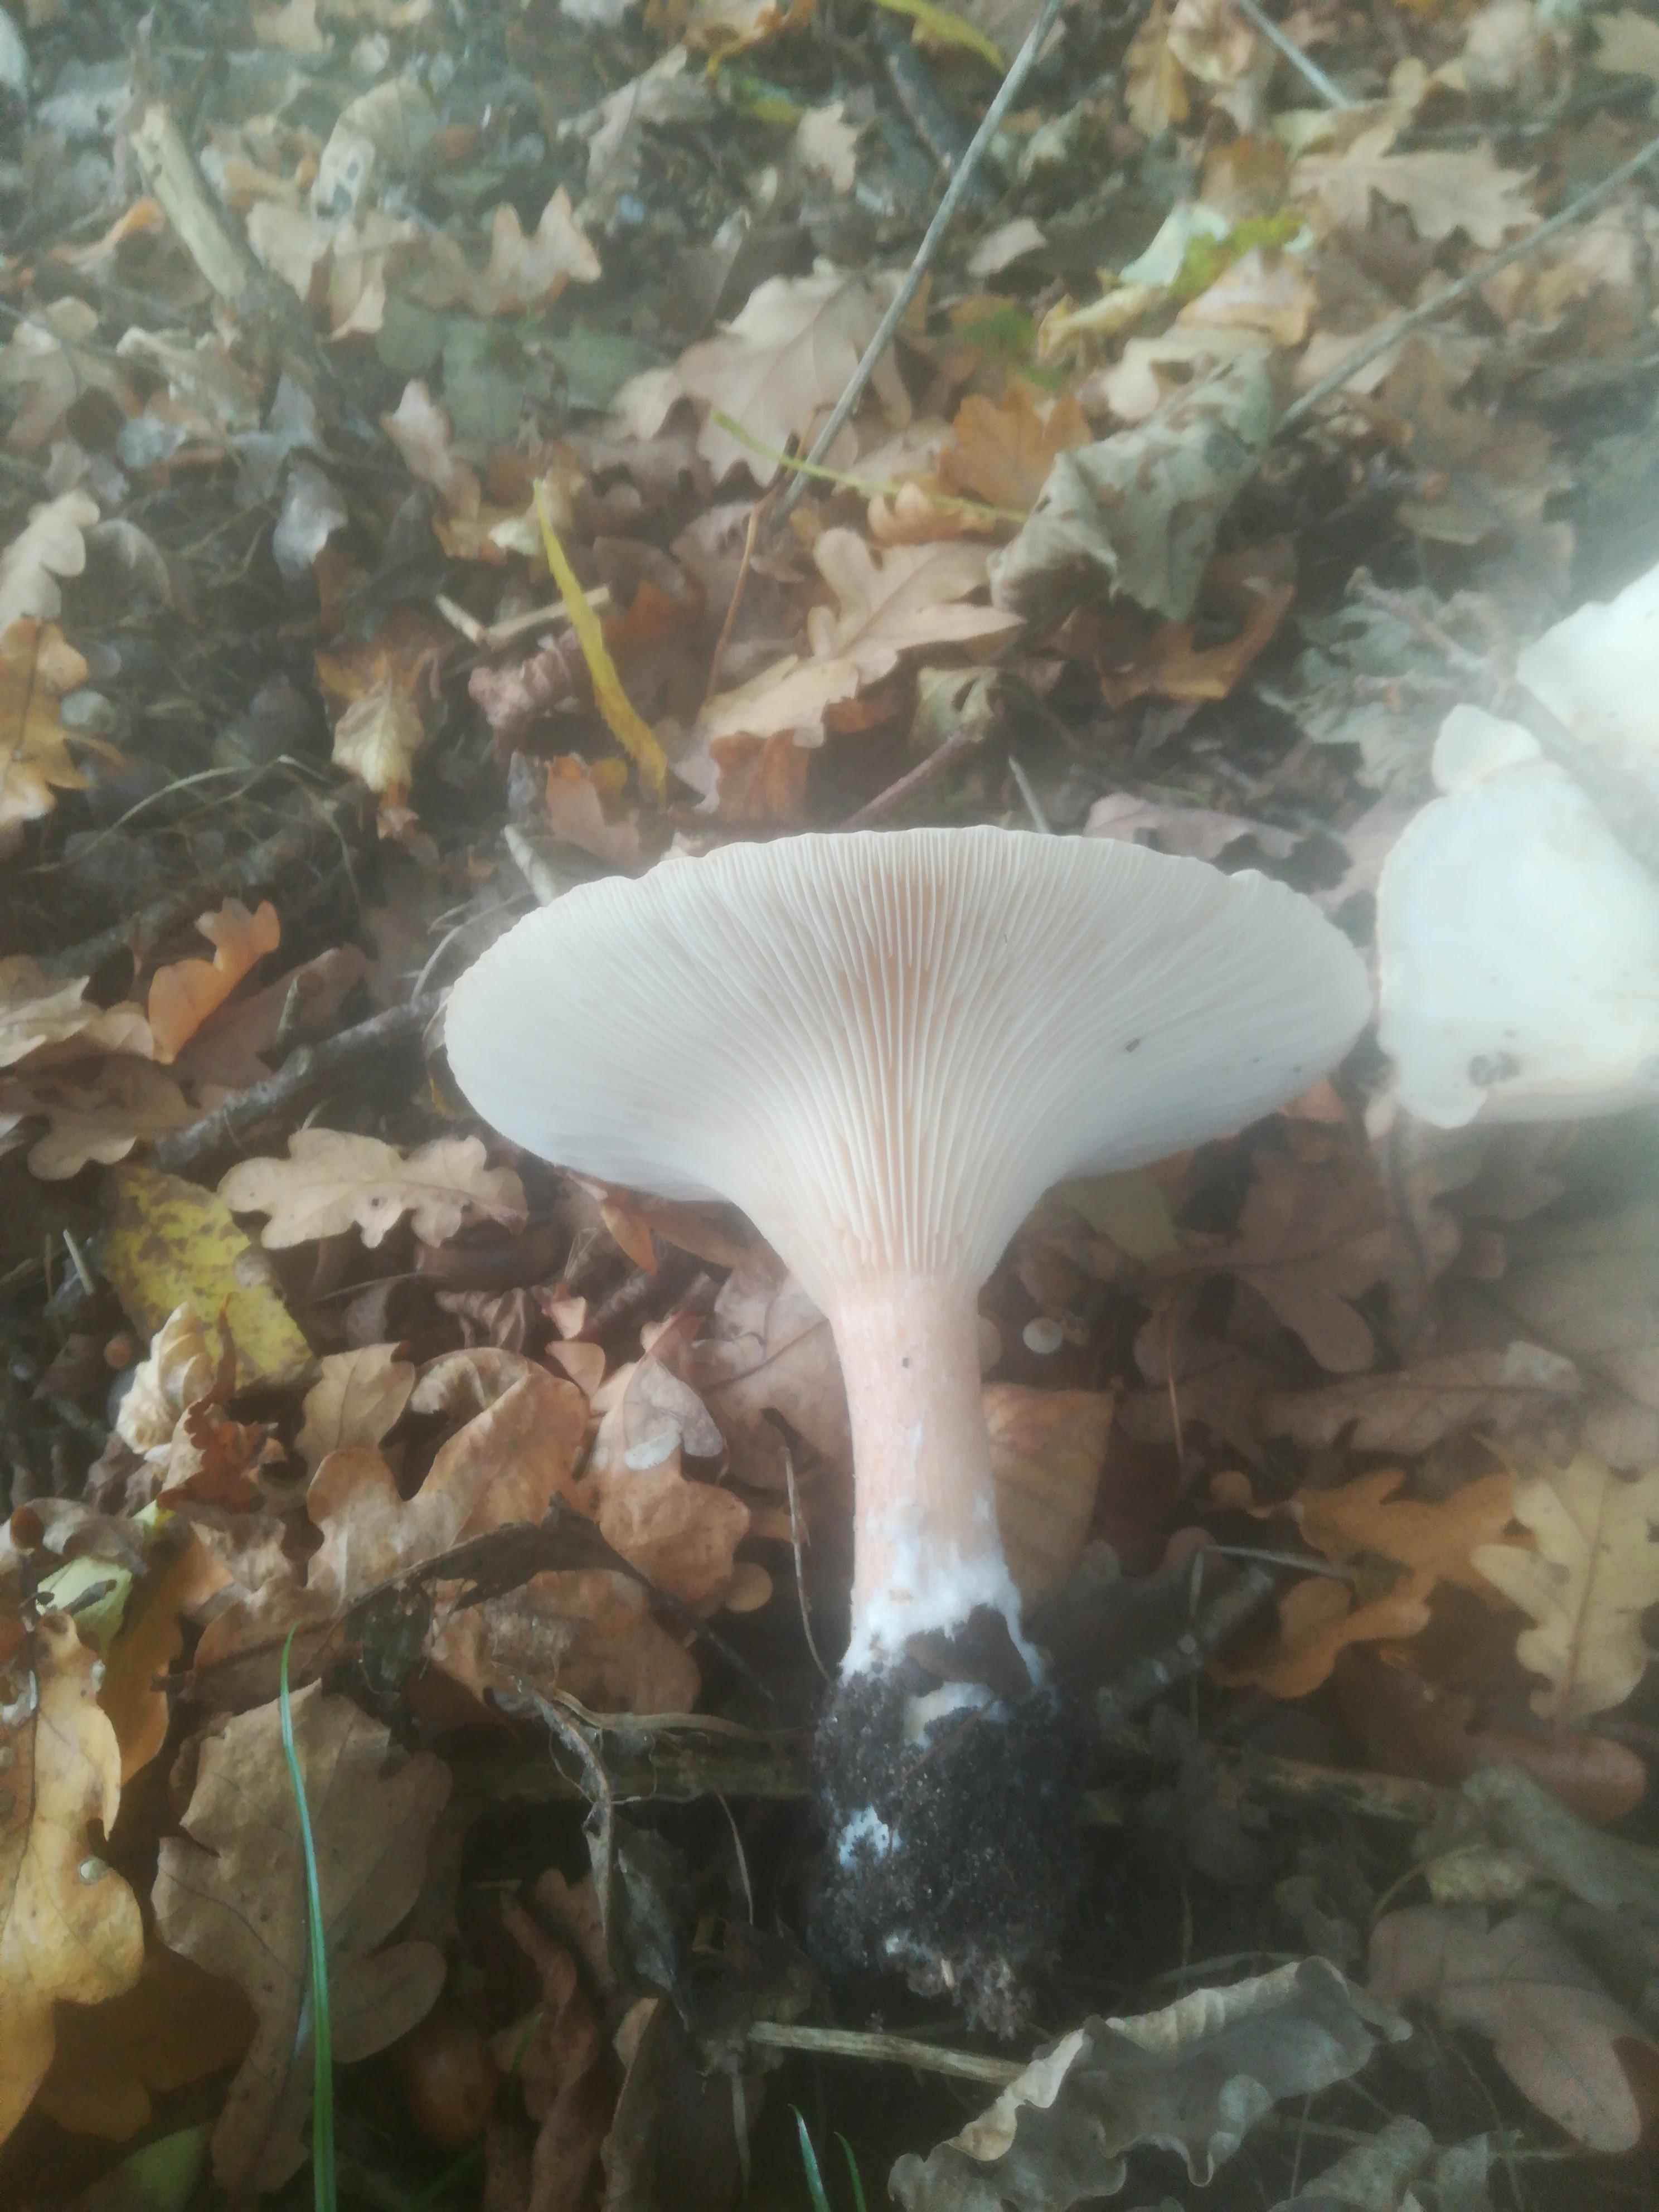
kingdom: Fungi
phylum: Basidiomycota
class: Agaricomycetes
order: Agaricales
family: Tricholomataceae
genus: Infundibulicybe
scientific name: Infundibulicybe geotropa
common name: stor tragthat
